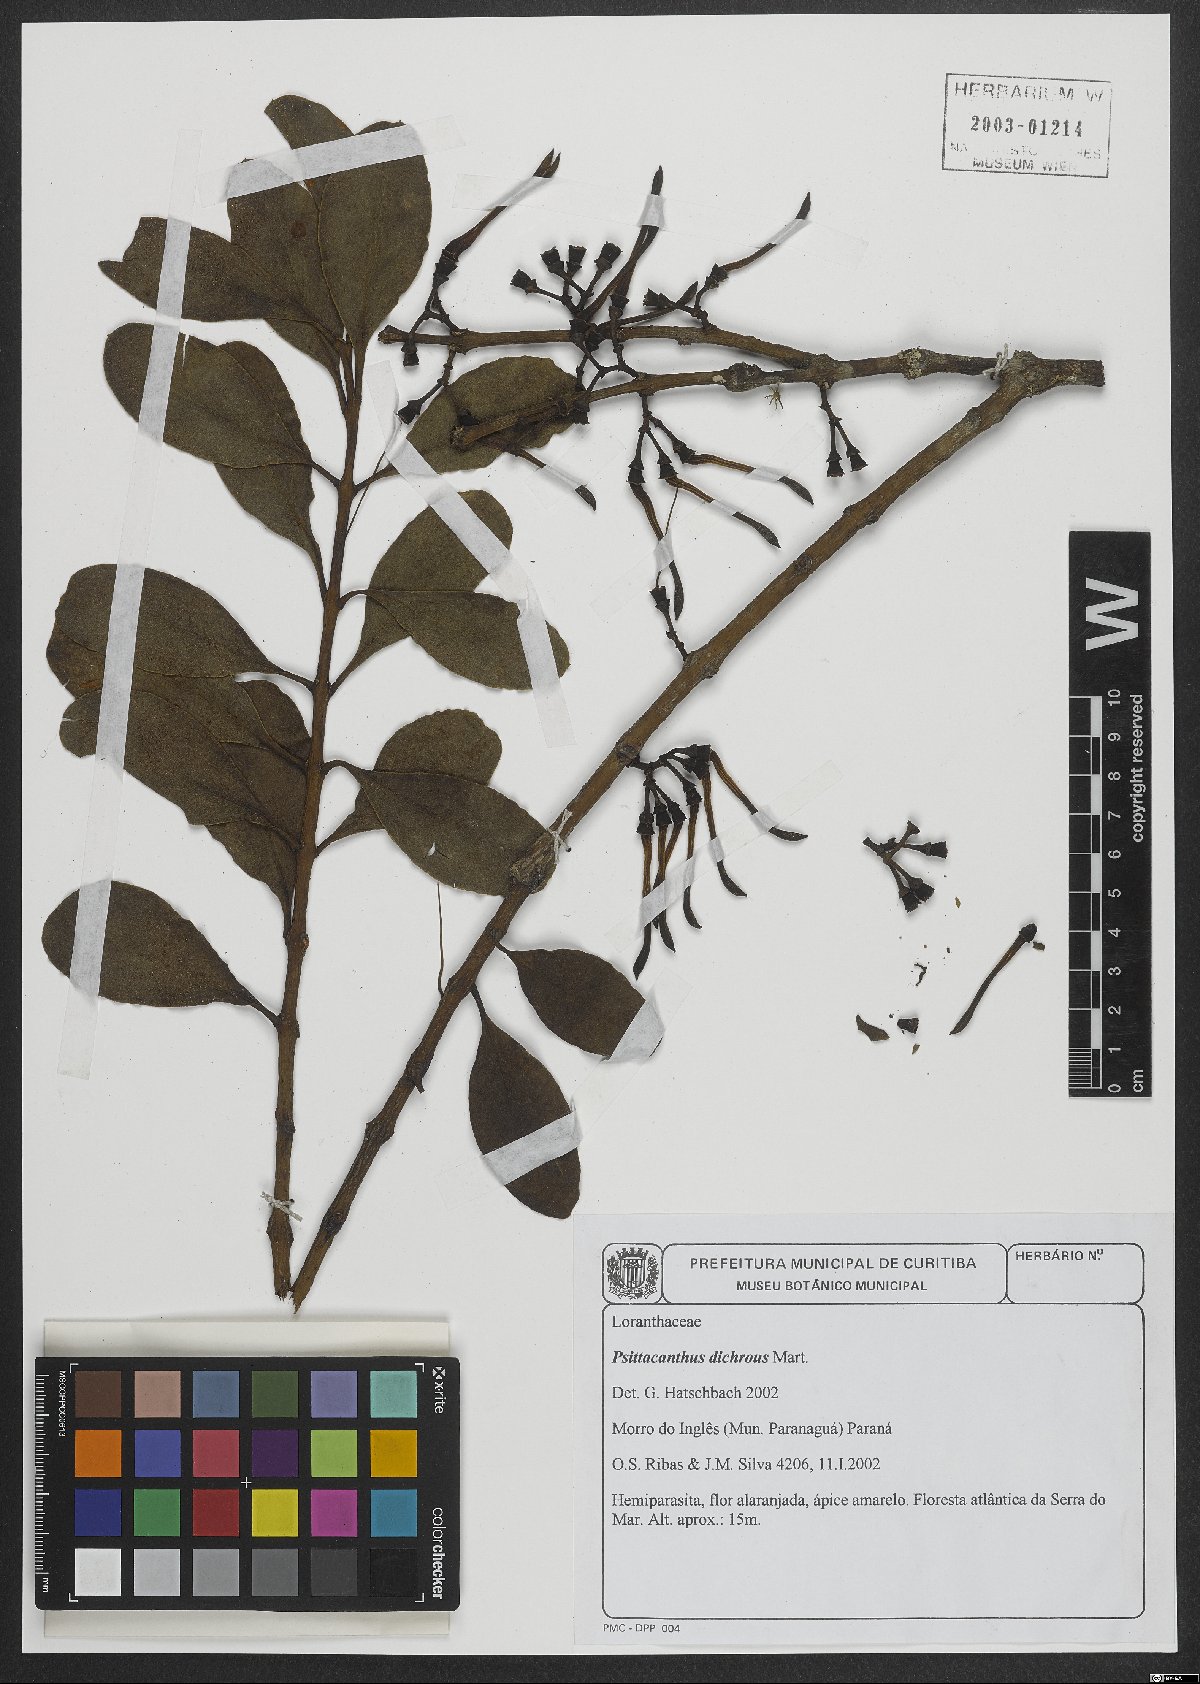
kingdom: Plantae
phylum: Tracheophyta
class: Magnoliopsida
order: Santalales
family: Loranthaceae
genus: Psittacanthus
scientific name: Psittacanthus dichroos
